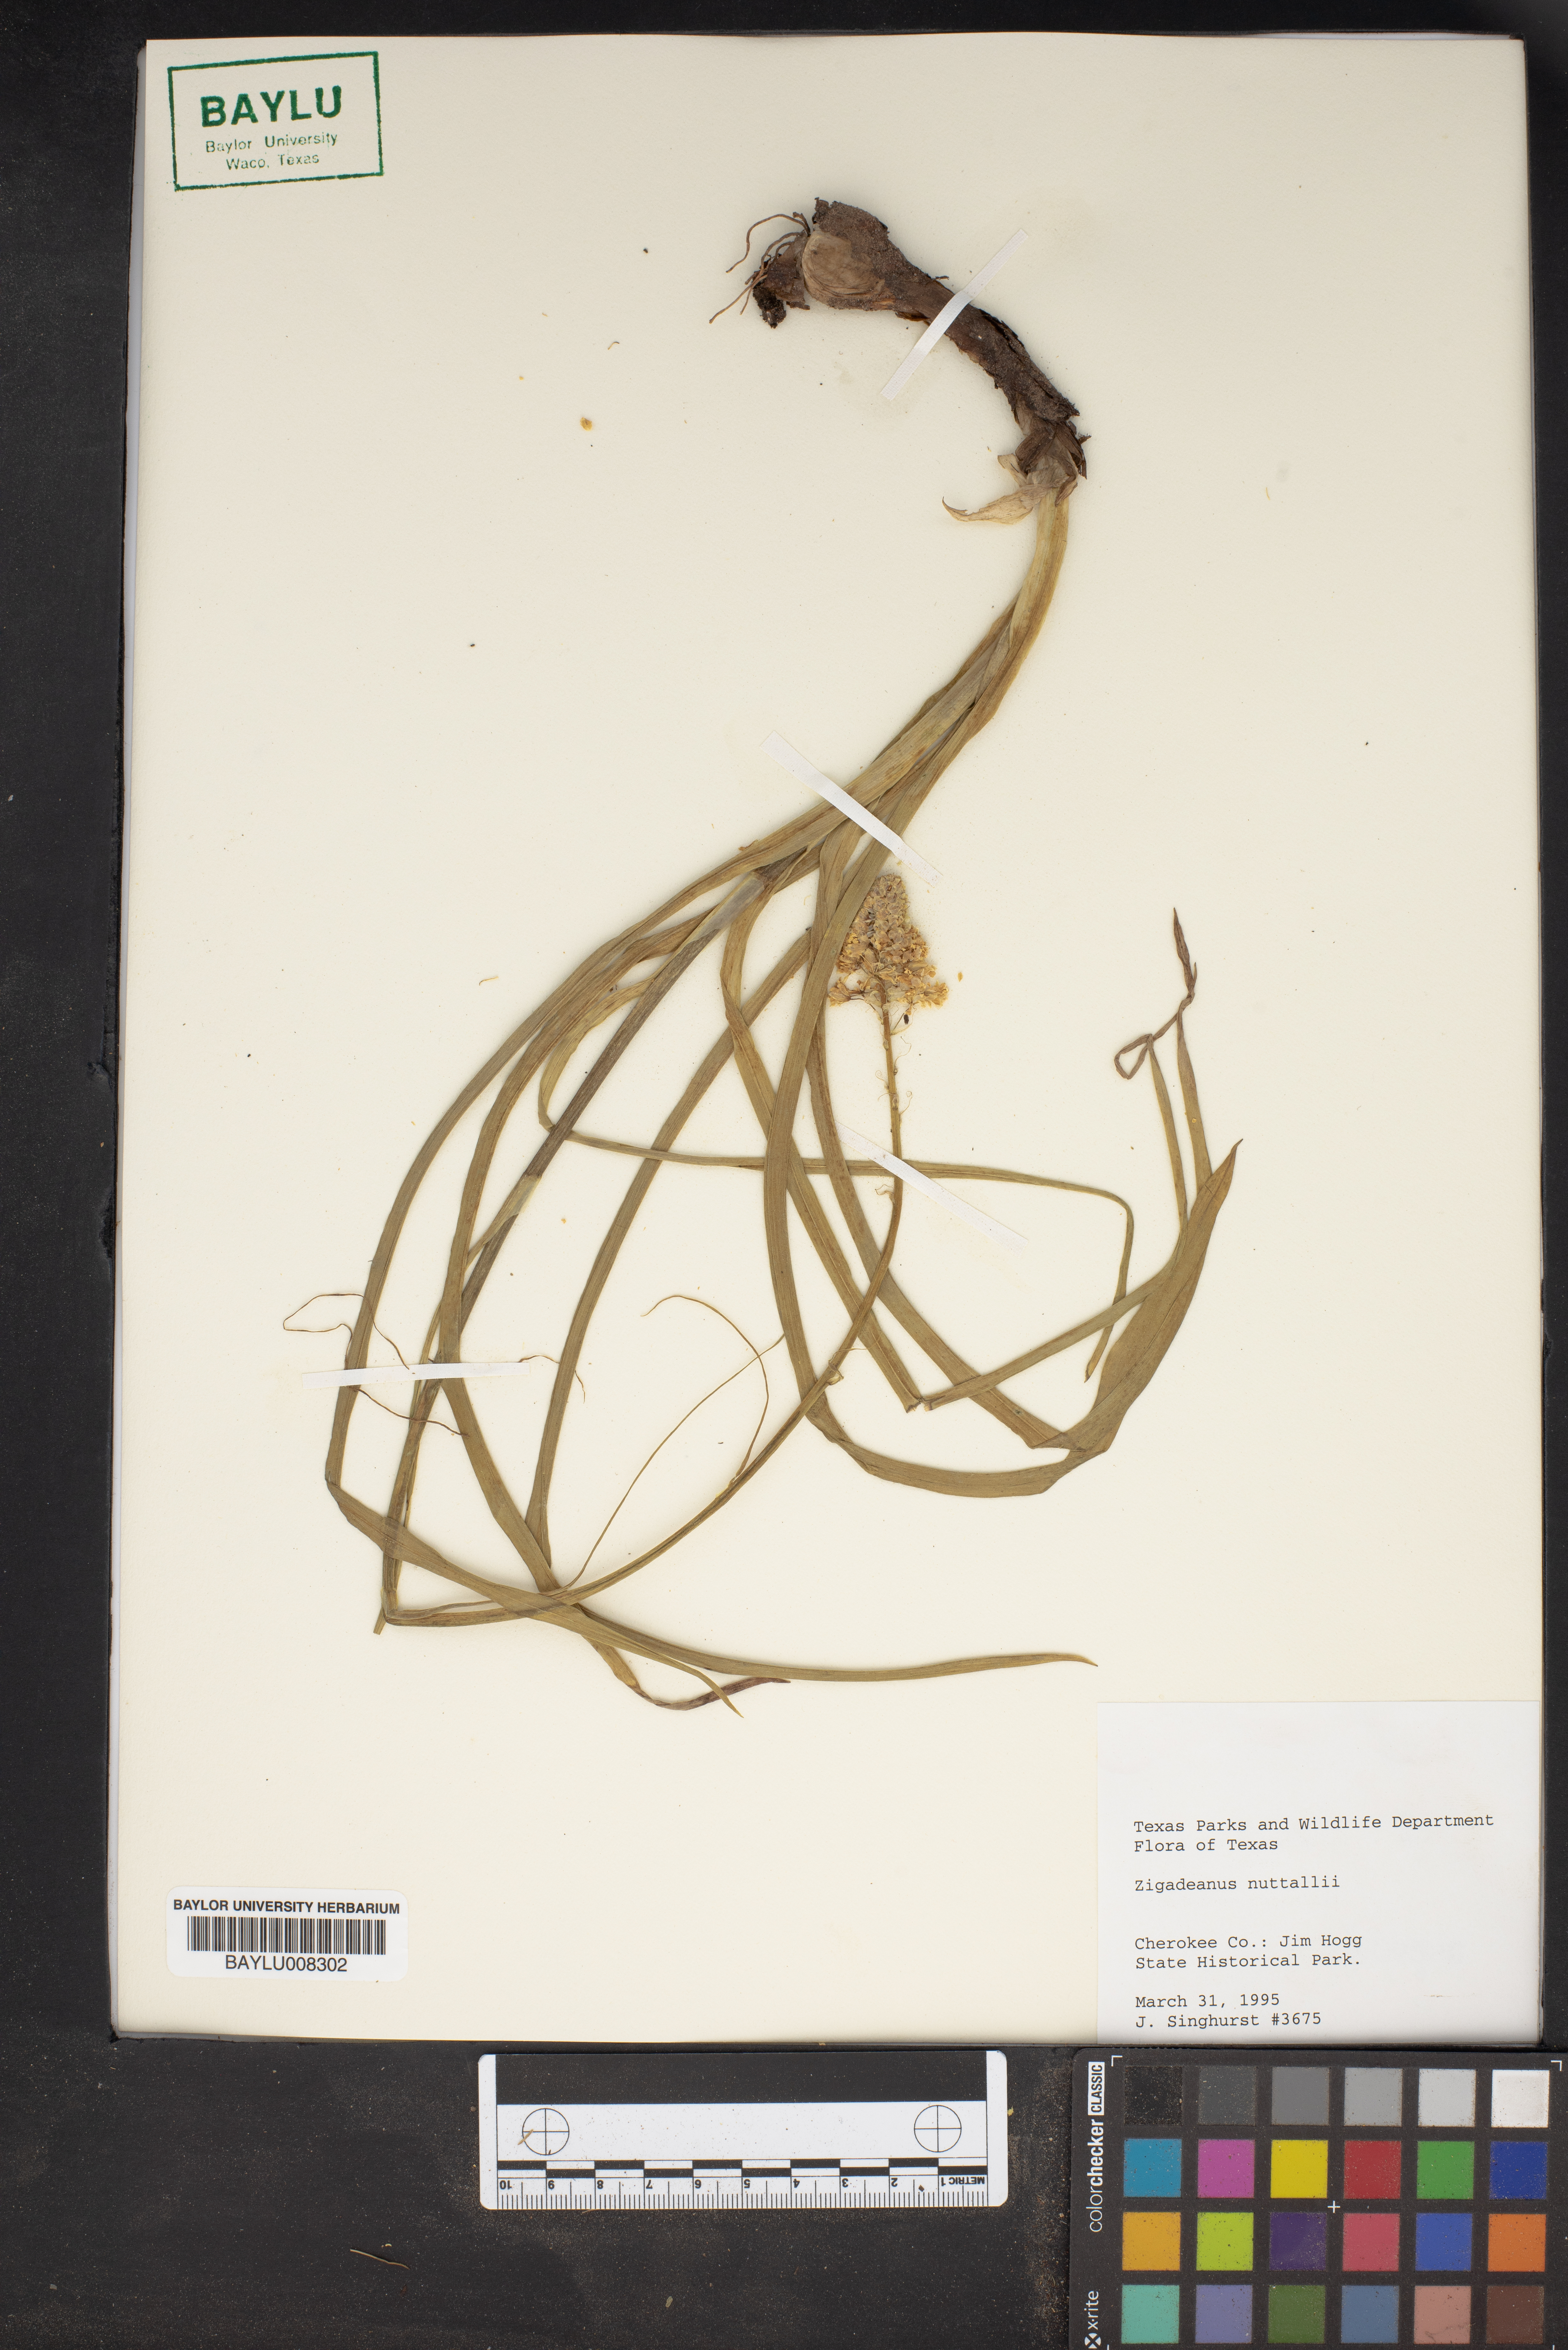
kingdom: Plantae
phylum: Tracheophyta
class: Liliopsida
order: Liliales
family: Melanthiaceae
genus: Toxicoscordion
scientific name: Toxicoscordion nuttallii
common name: Poison sego
